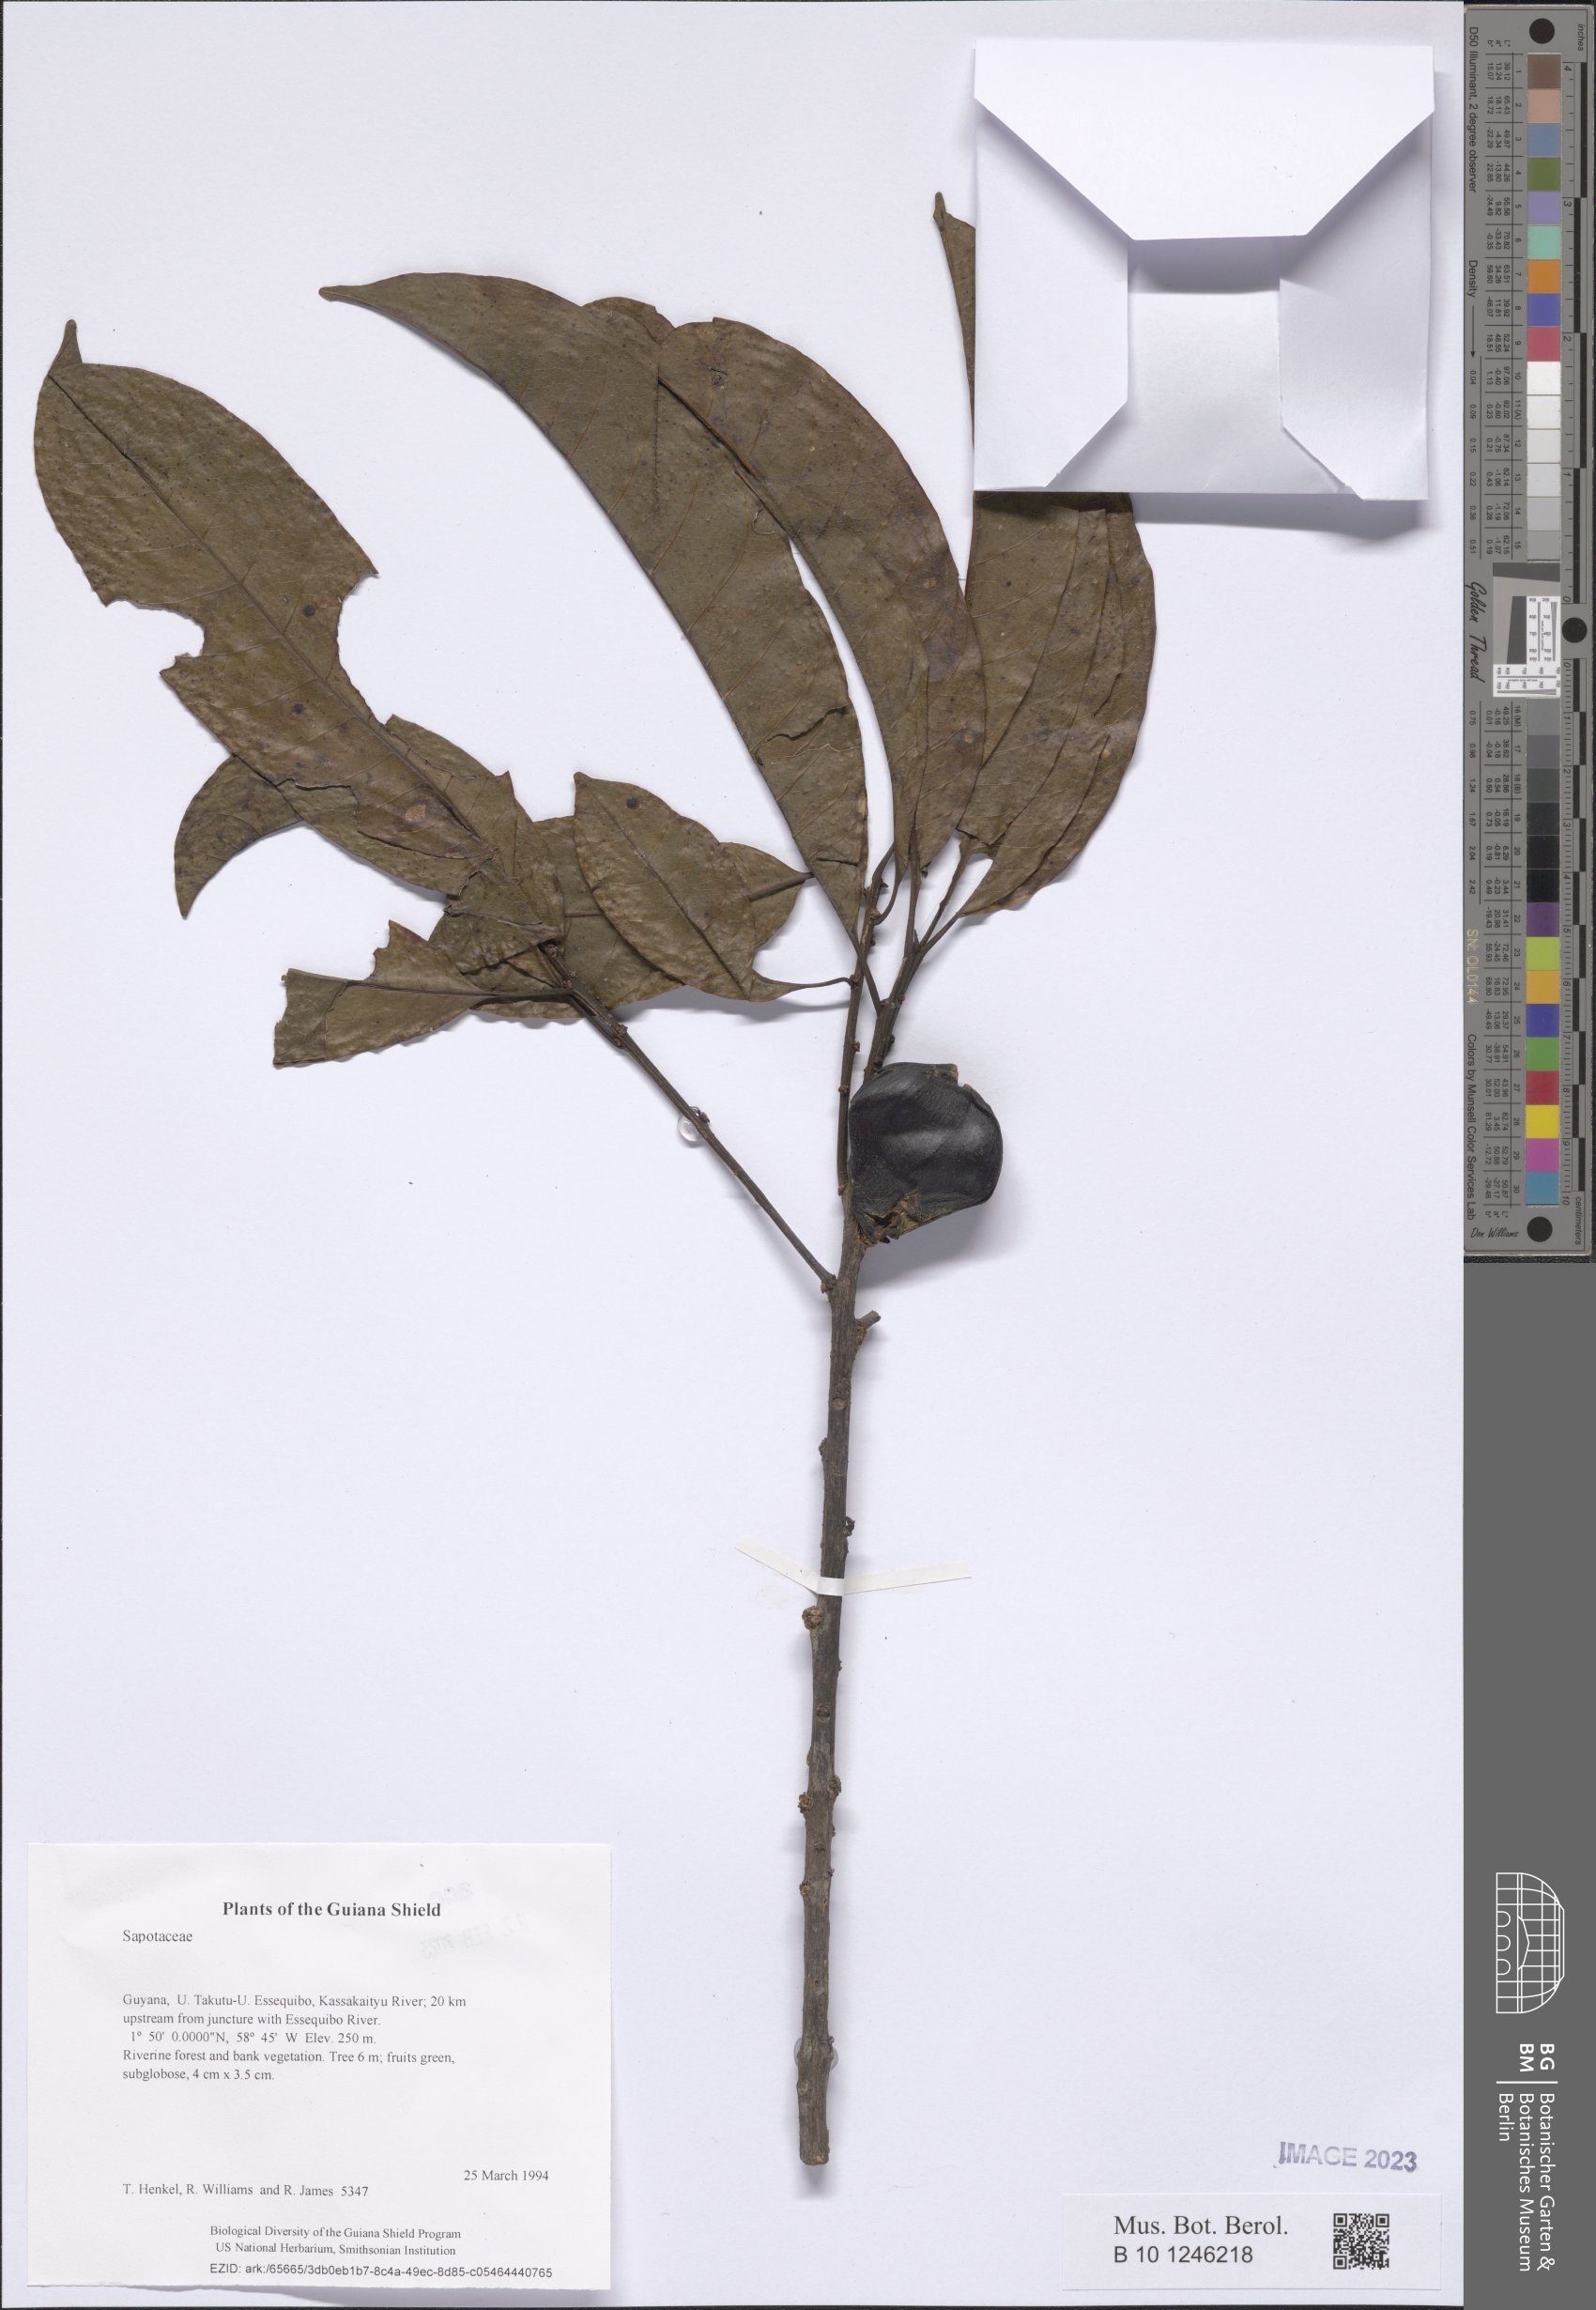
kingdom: Plantae
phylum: Tracheophyta
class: Magnoliopsida
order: Ericales
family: Sapotaceae
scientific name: Sapotaceae
